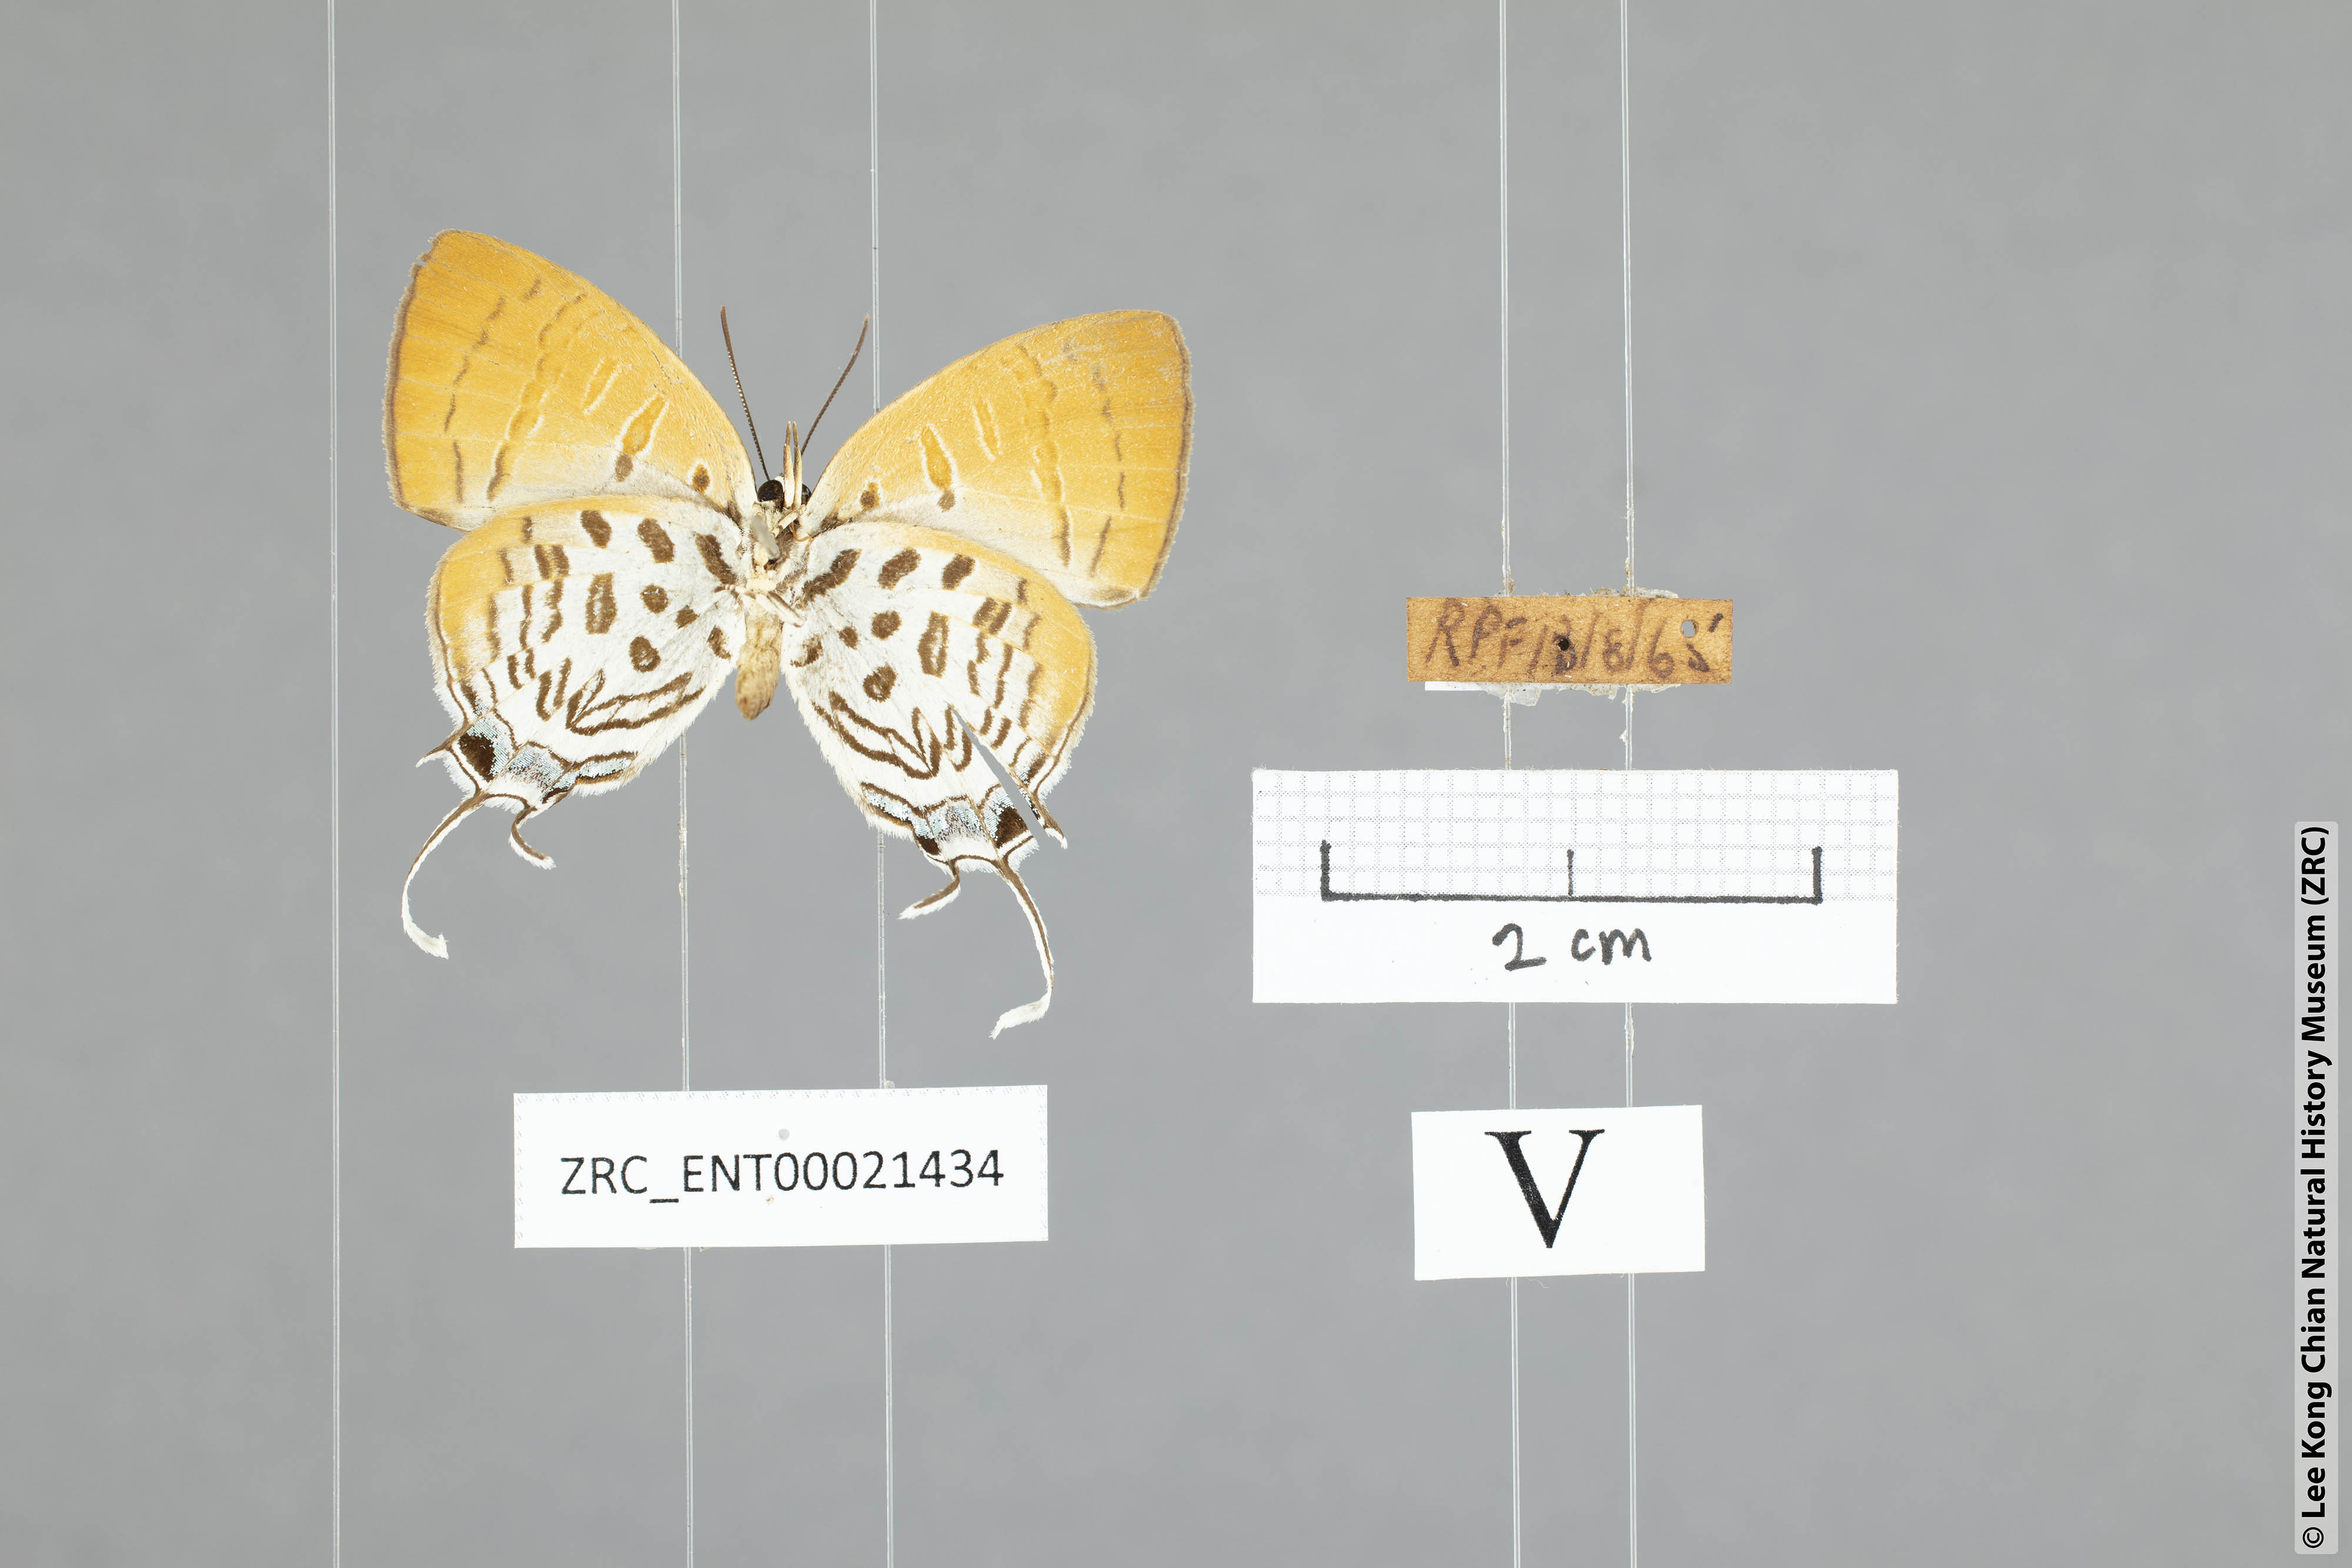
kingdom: Animalia
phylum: Arthropoda
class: Insecta
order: Lepidoptera
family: Lycaenidae
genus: Drupadia
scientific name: Drupadia theda
